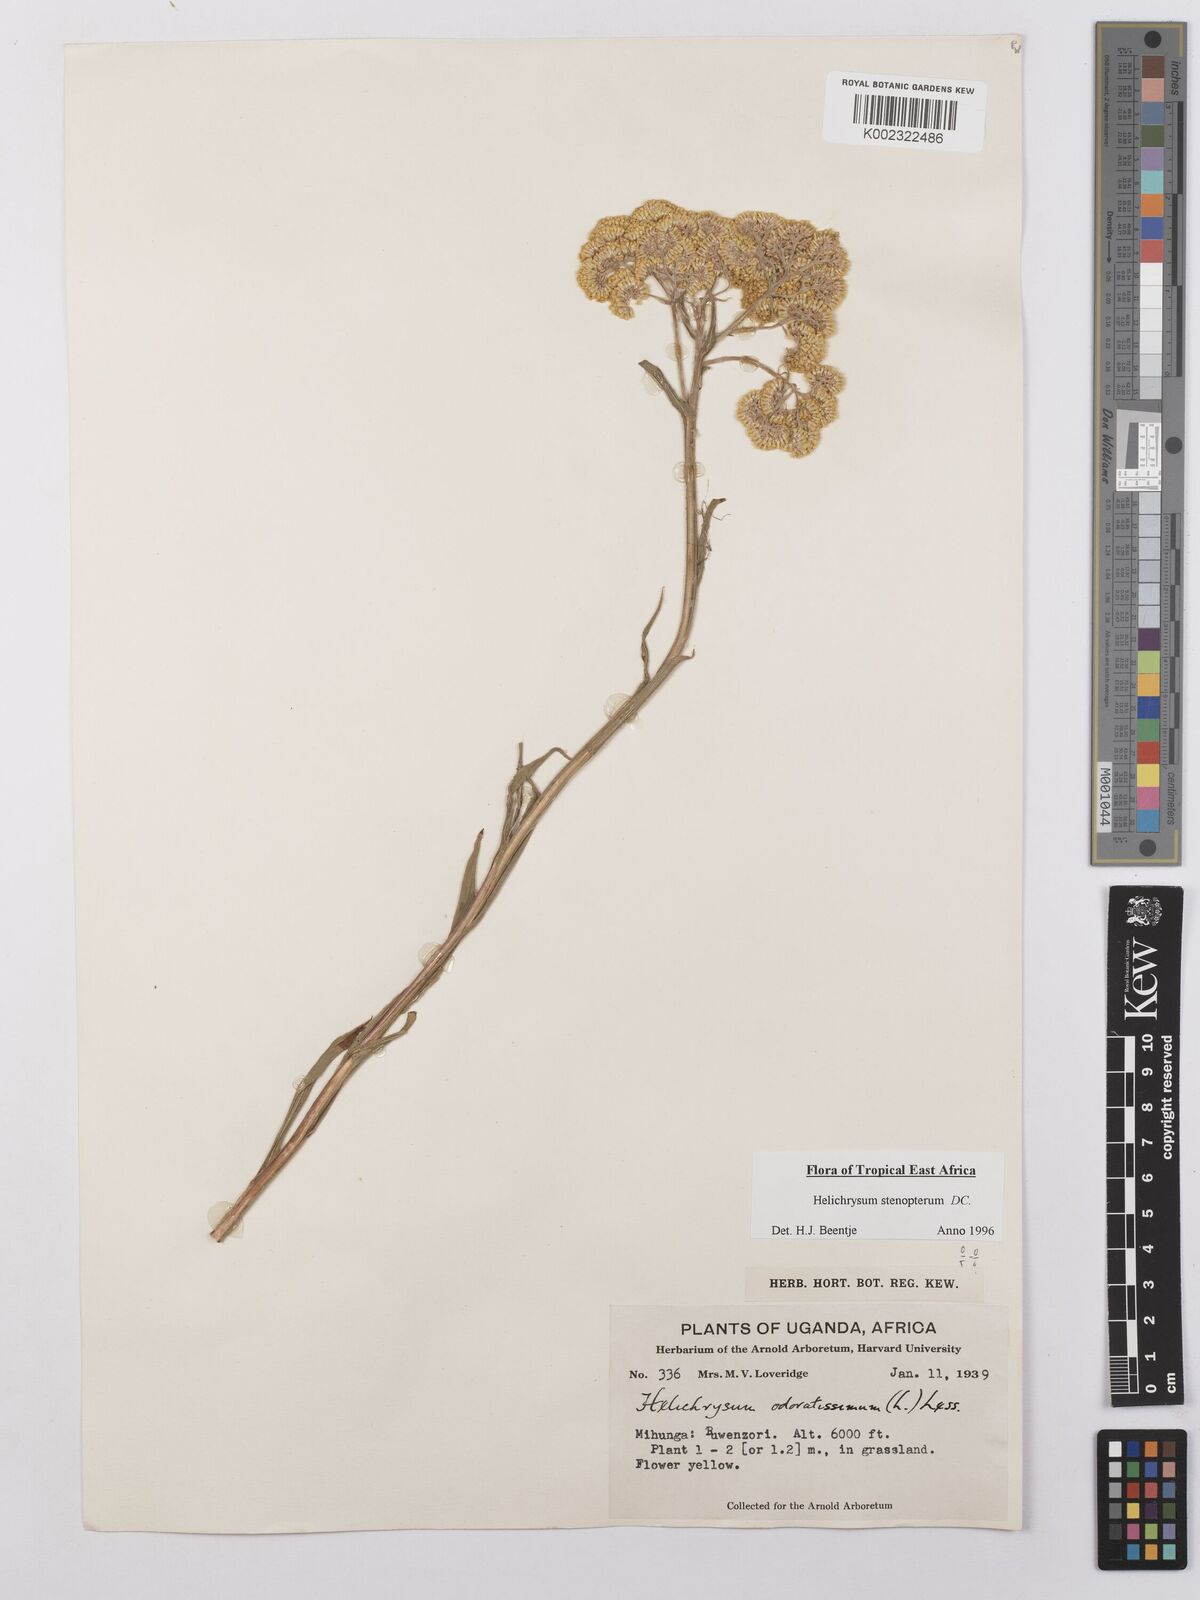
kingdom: Plantae
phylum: Tracheophyta
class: Magnoliopsida
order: Asterales
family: Asteraceae
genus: Helichrysum
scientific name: Helichrysum stenopterum
